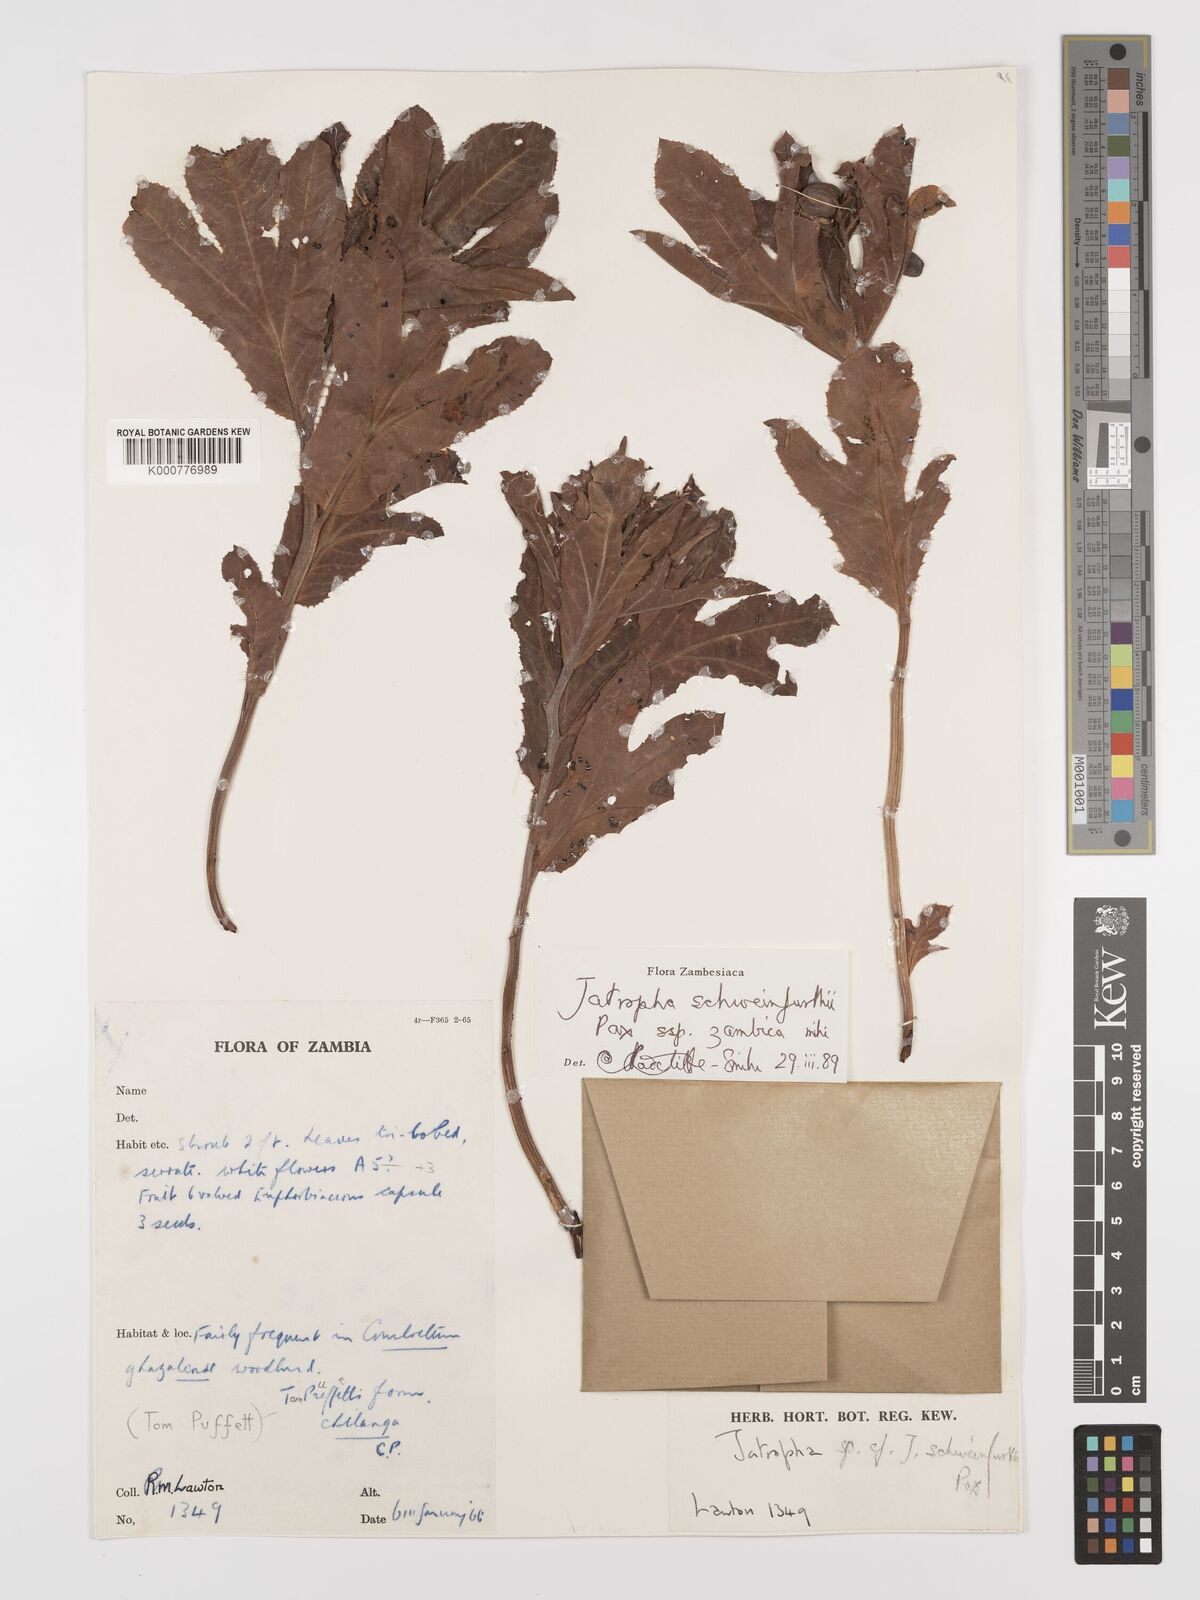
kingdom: Plantae
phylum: Tracheophyta
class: Magnoliopsida
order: Malpighiales
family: Euphorbiaceae
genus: Jatropha
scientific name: Jatropha schweinfurthii
